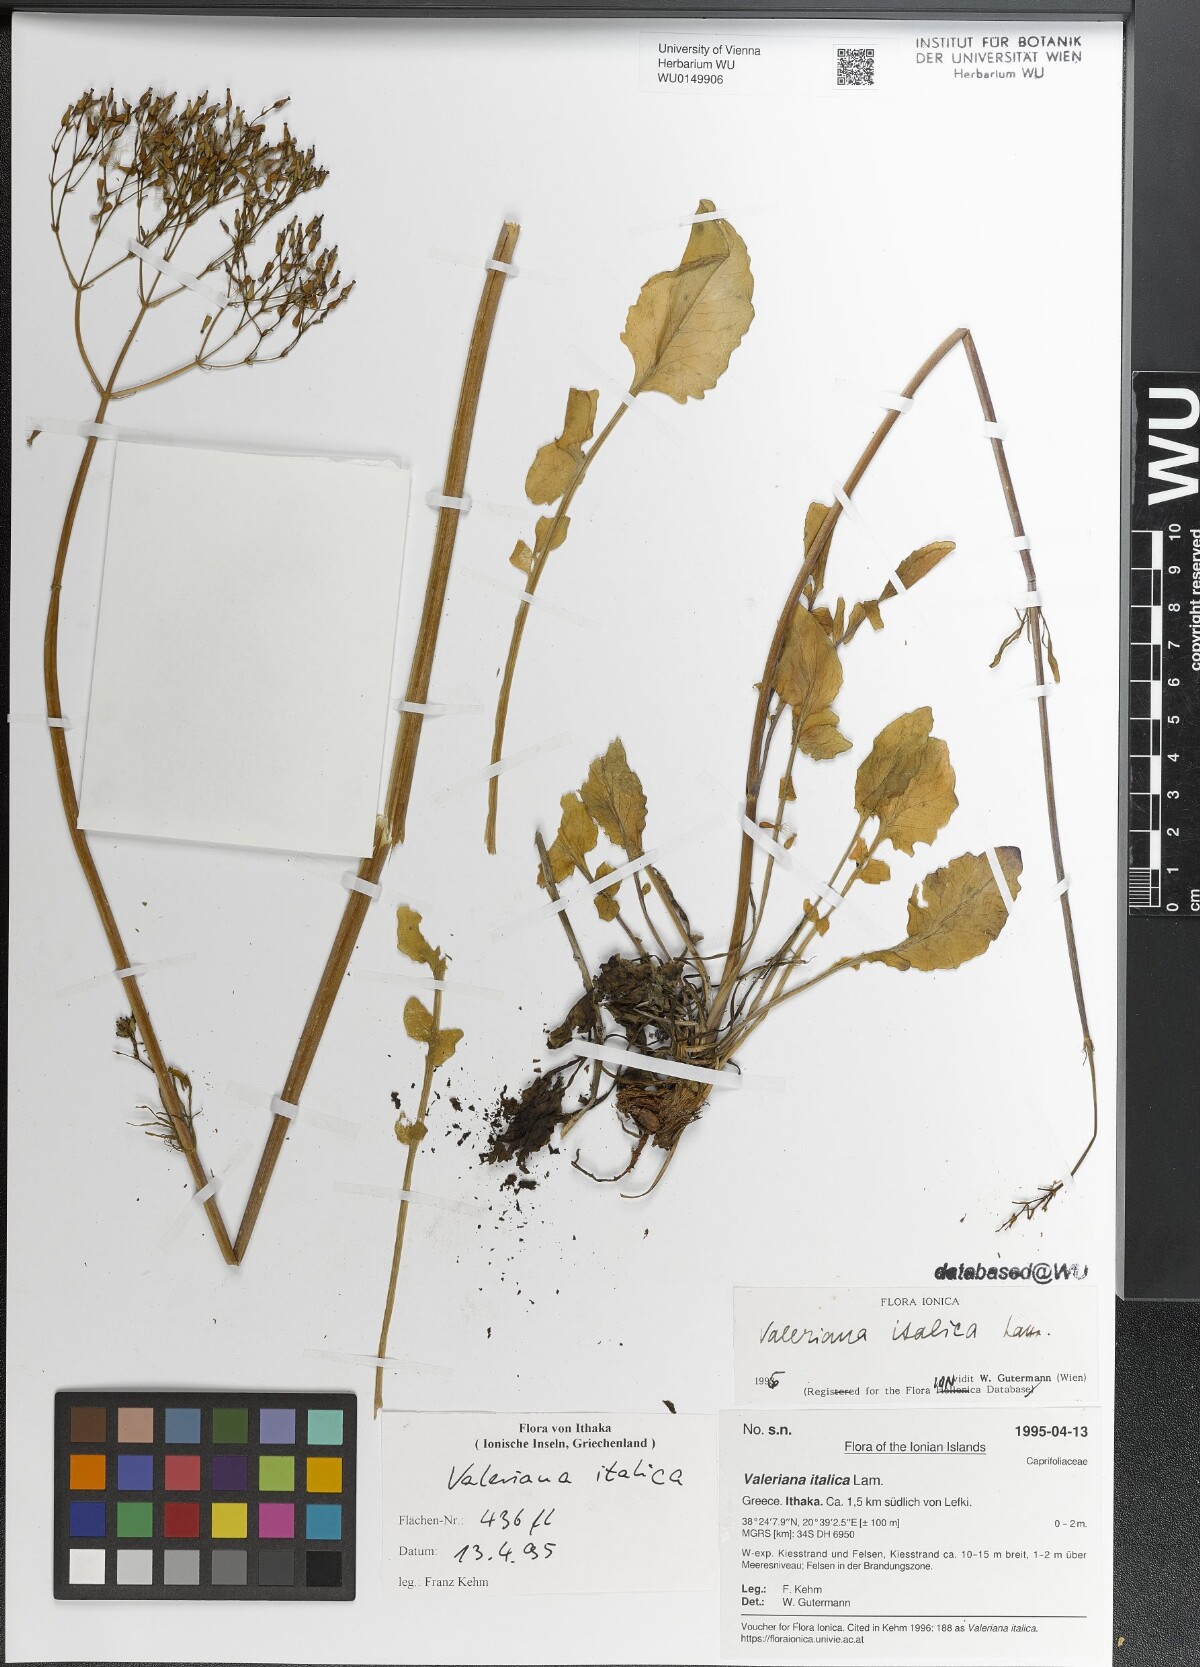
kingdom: Plantae
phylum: Tracheophyta
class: Magnoliopsida
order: Dipsacales
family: Caprifoliaceae
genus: Valeriana
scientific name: Valeriana dioscoridis
